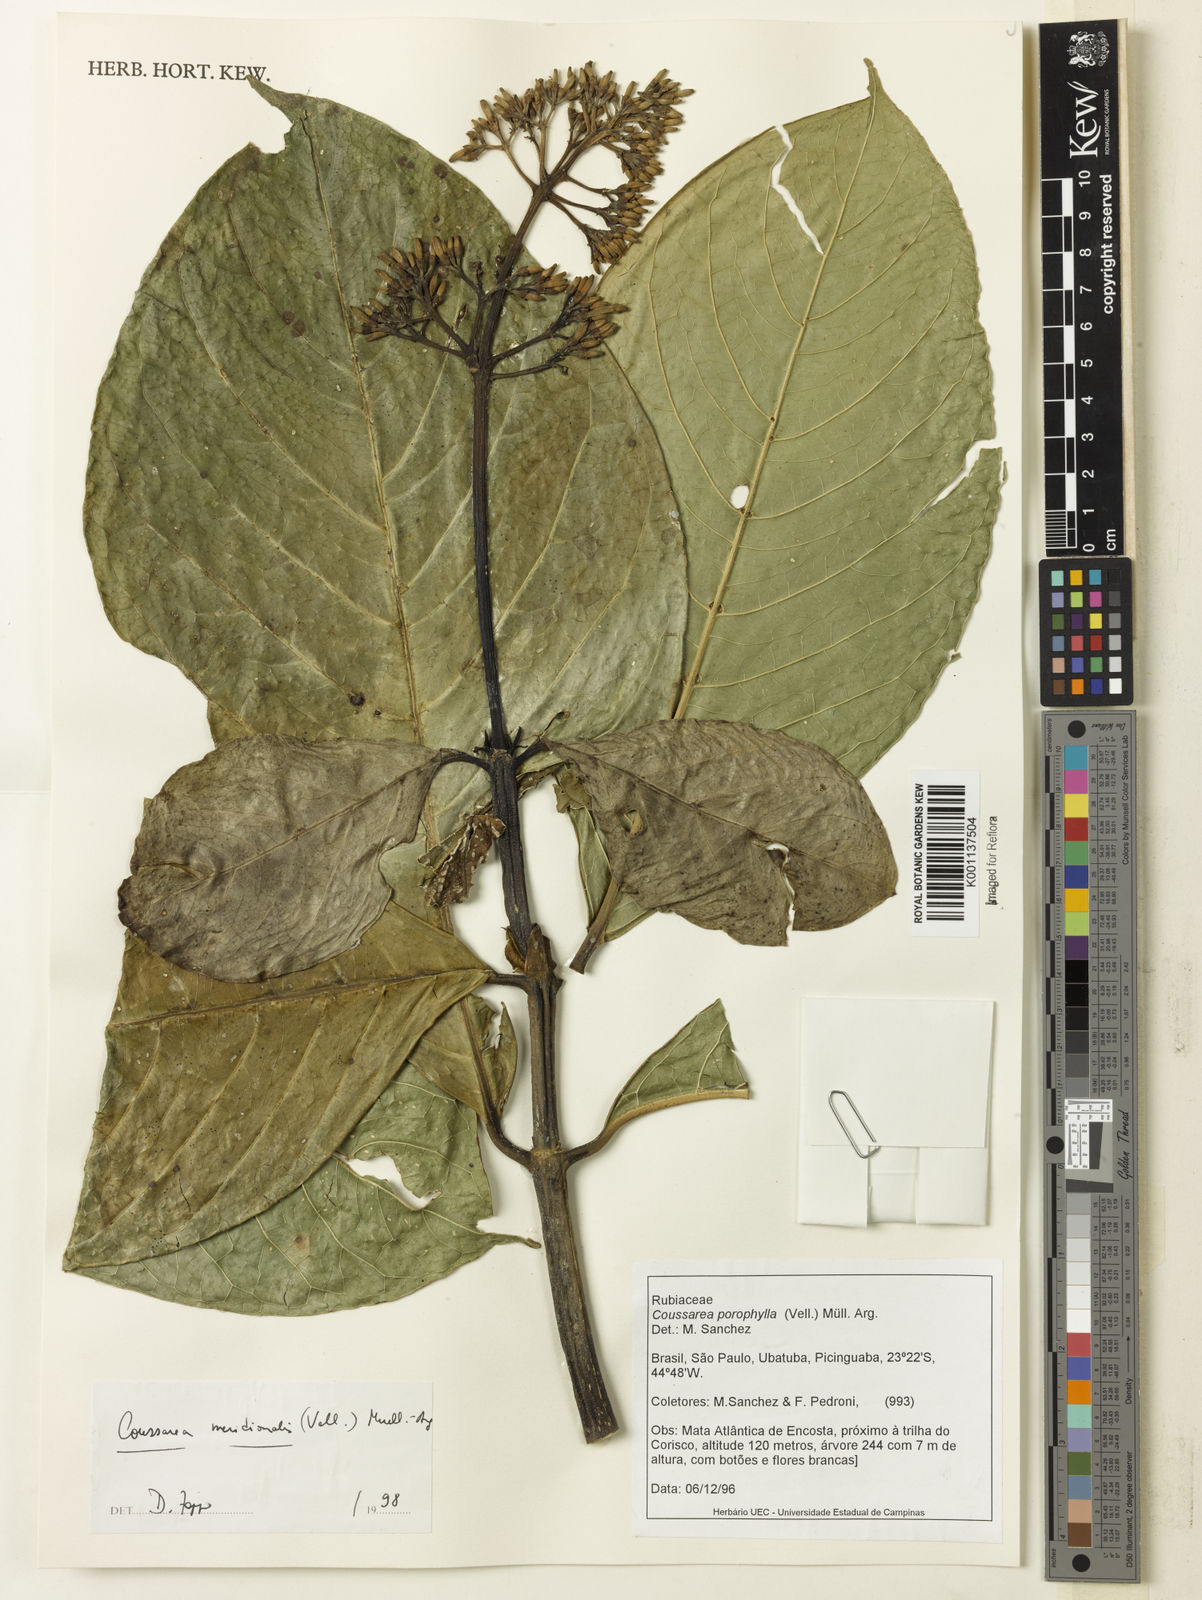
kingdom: Plantae
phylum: Tracheophyta
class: Magnoliopsida
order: Gentianales
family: Rubiaceae
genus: Coussarea
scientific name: Coussarea
